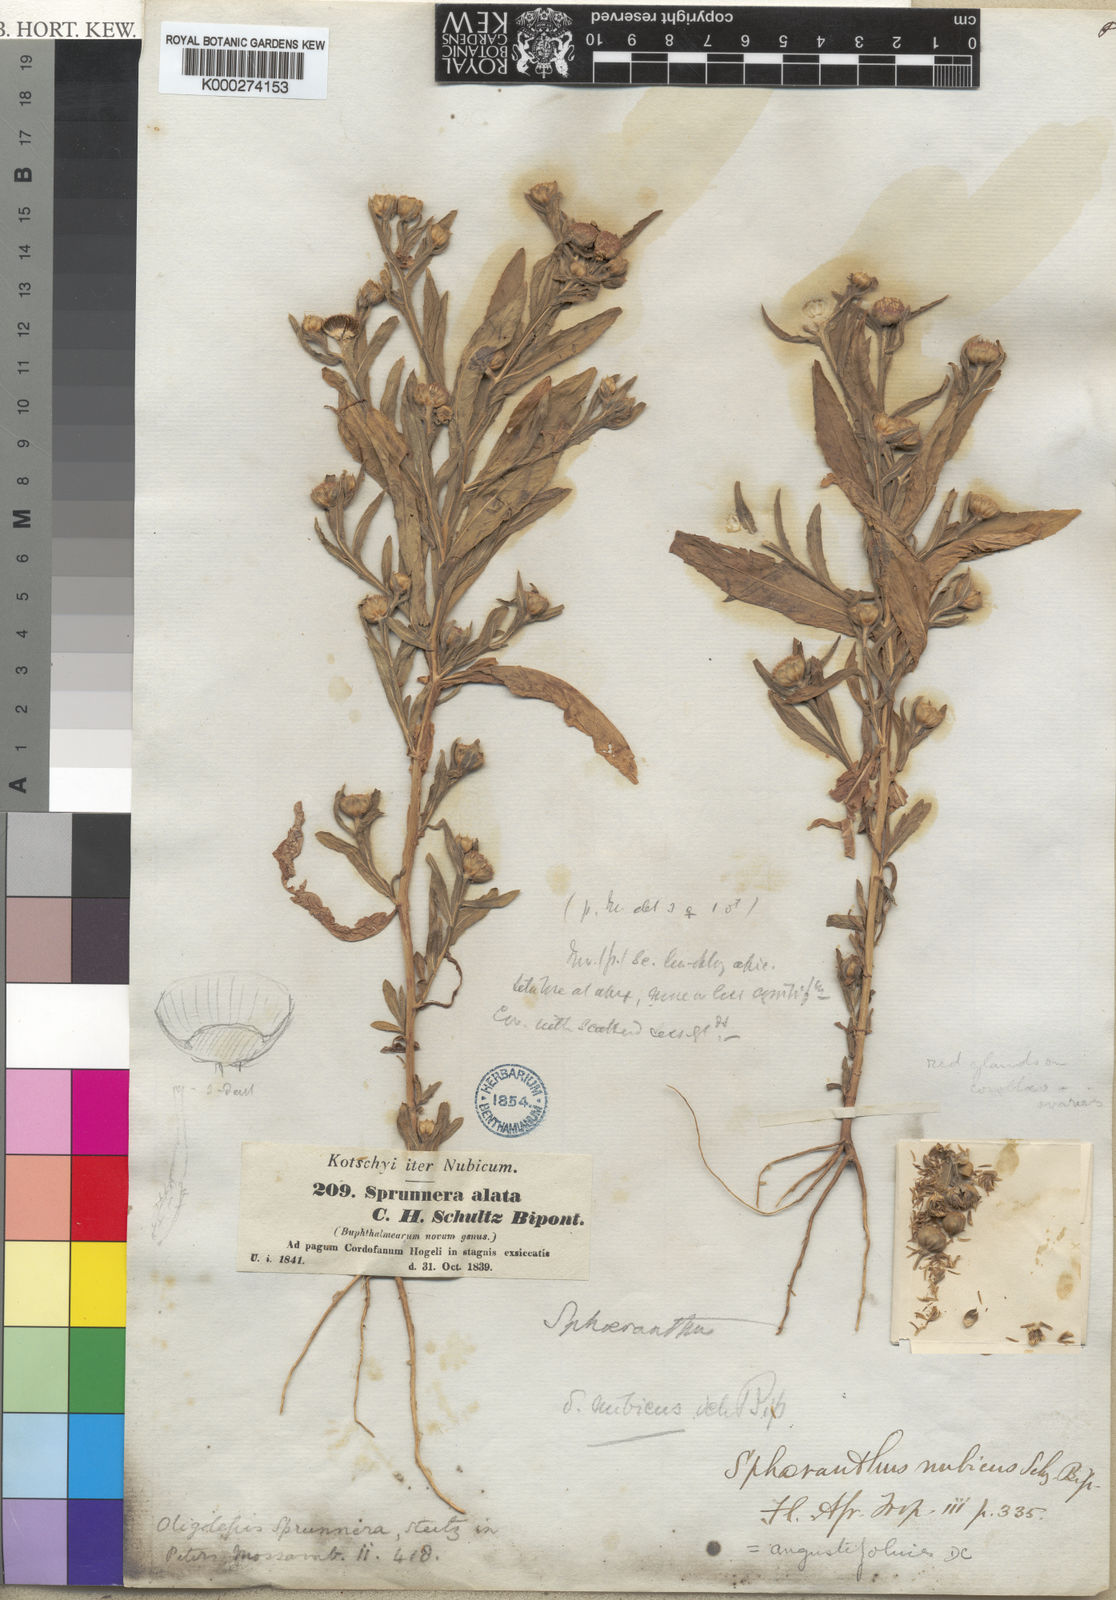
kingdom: Plantae
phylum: Tracheophyta
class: Magnoliopsida
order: Asterales
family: Asteraceae
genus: Sphaeranthus
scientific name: Sphaeranthus
